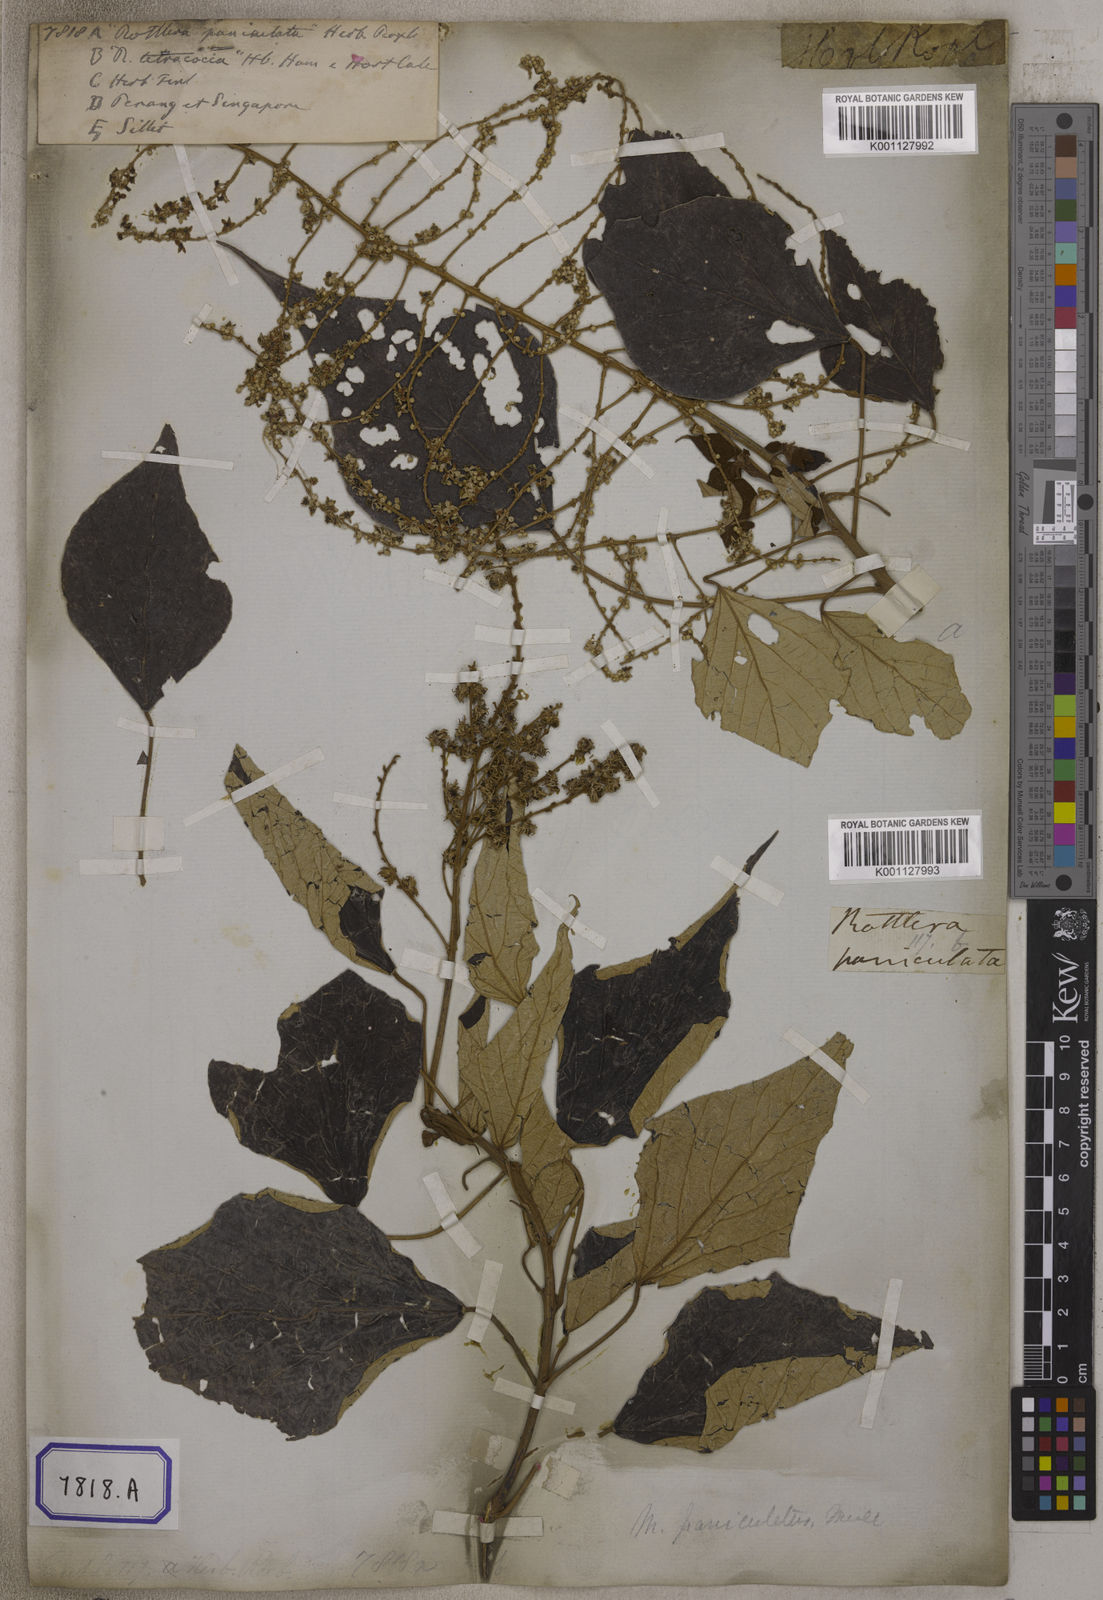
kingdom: Plantae
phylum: Tracheophyta
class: Magnoliopsida
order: Malpighiales
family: Euphorbiaceae
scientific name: Euphorbiaceae
